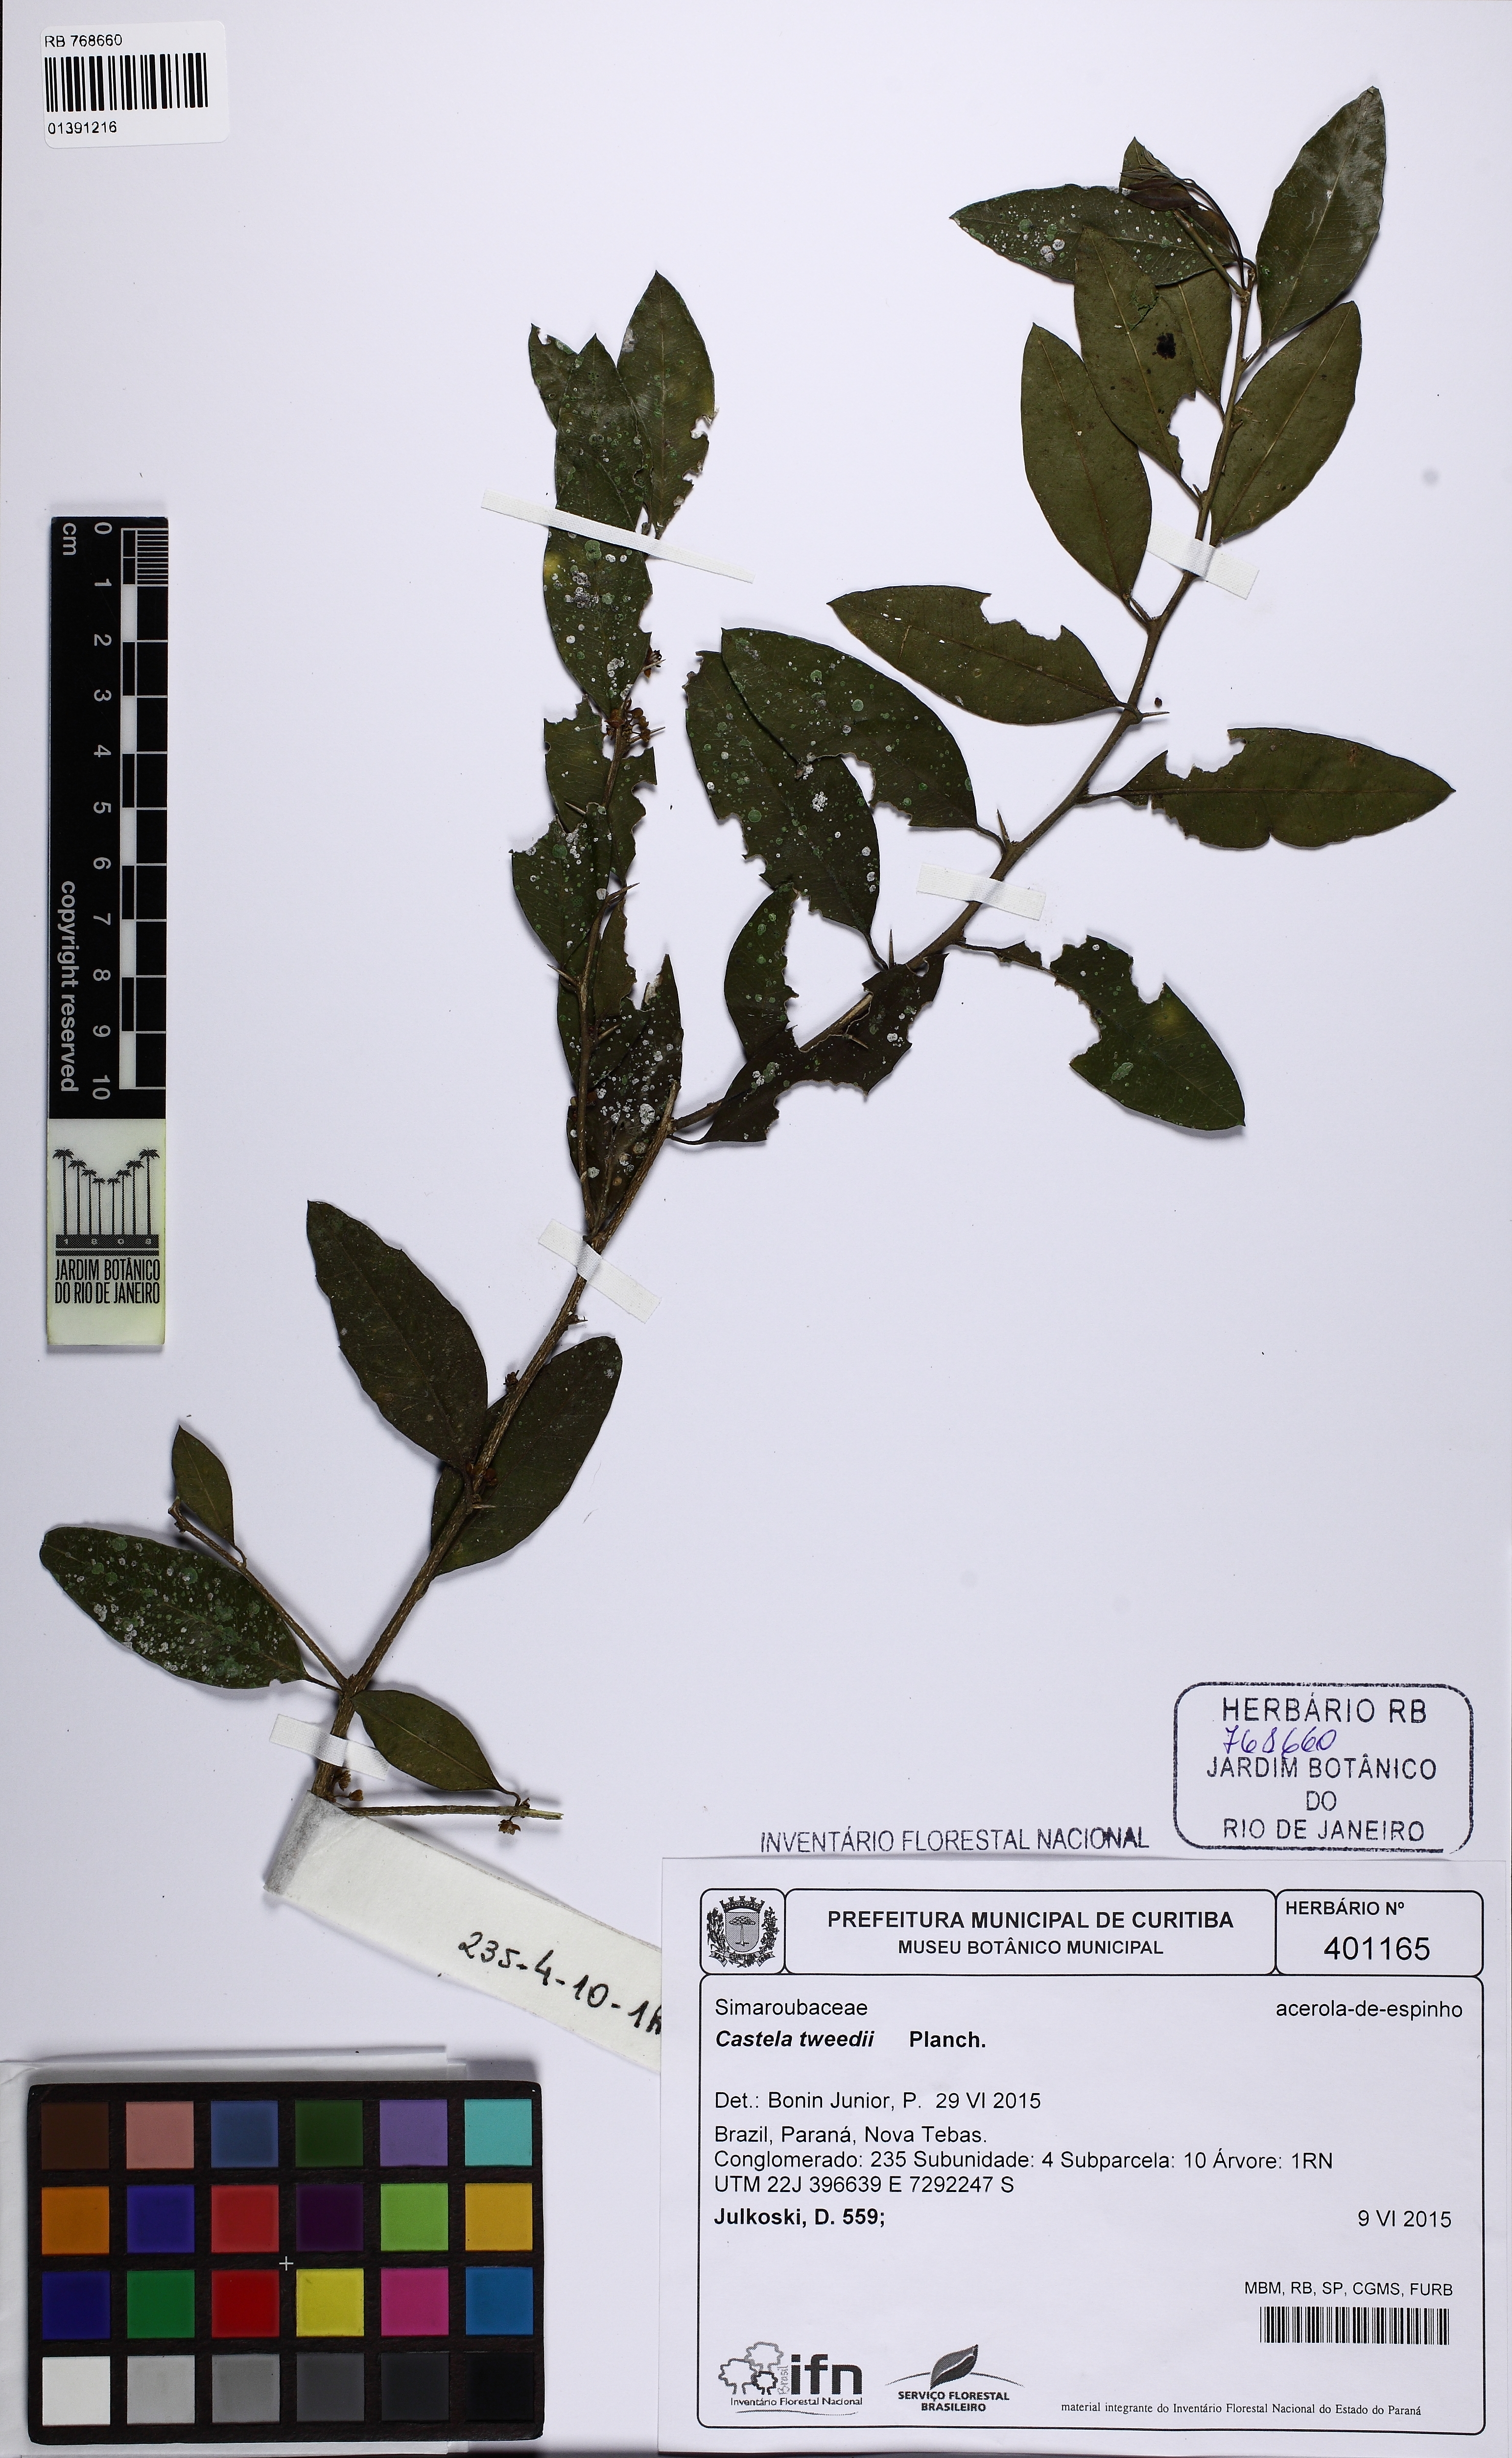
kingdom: Plantae
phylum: Tracheophyta
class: Magnoliopsida
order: Sapindales
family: Simaroubaceae
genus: Castela
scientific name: Castela tweedii
